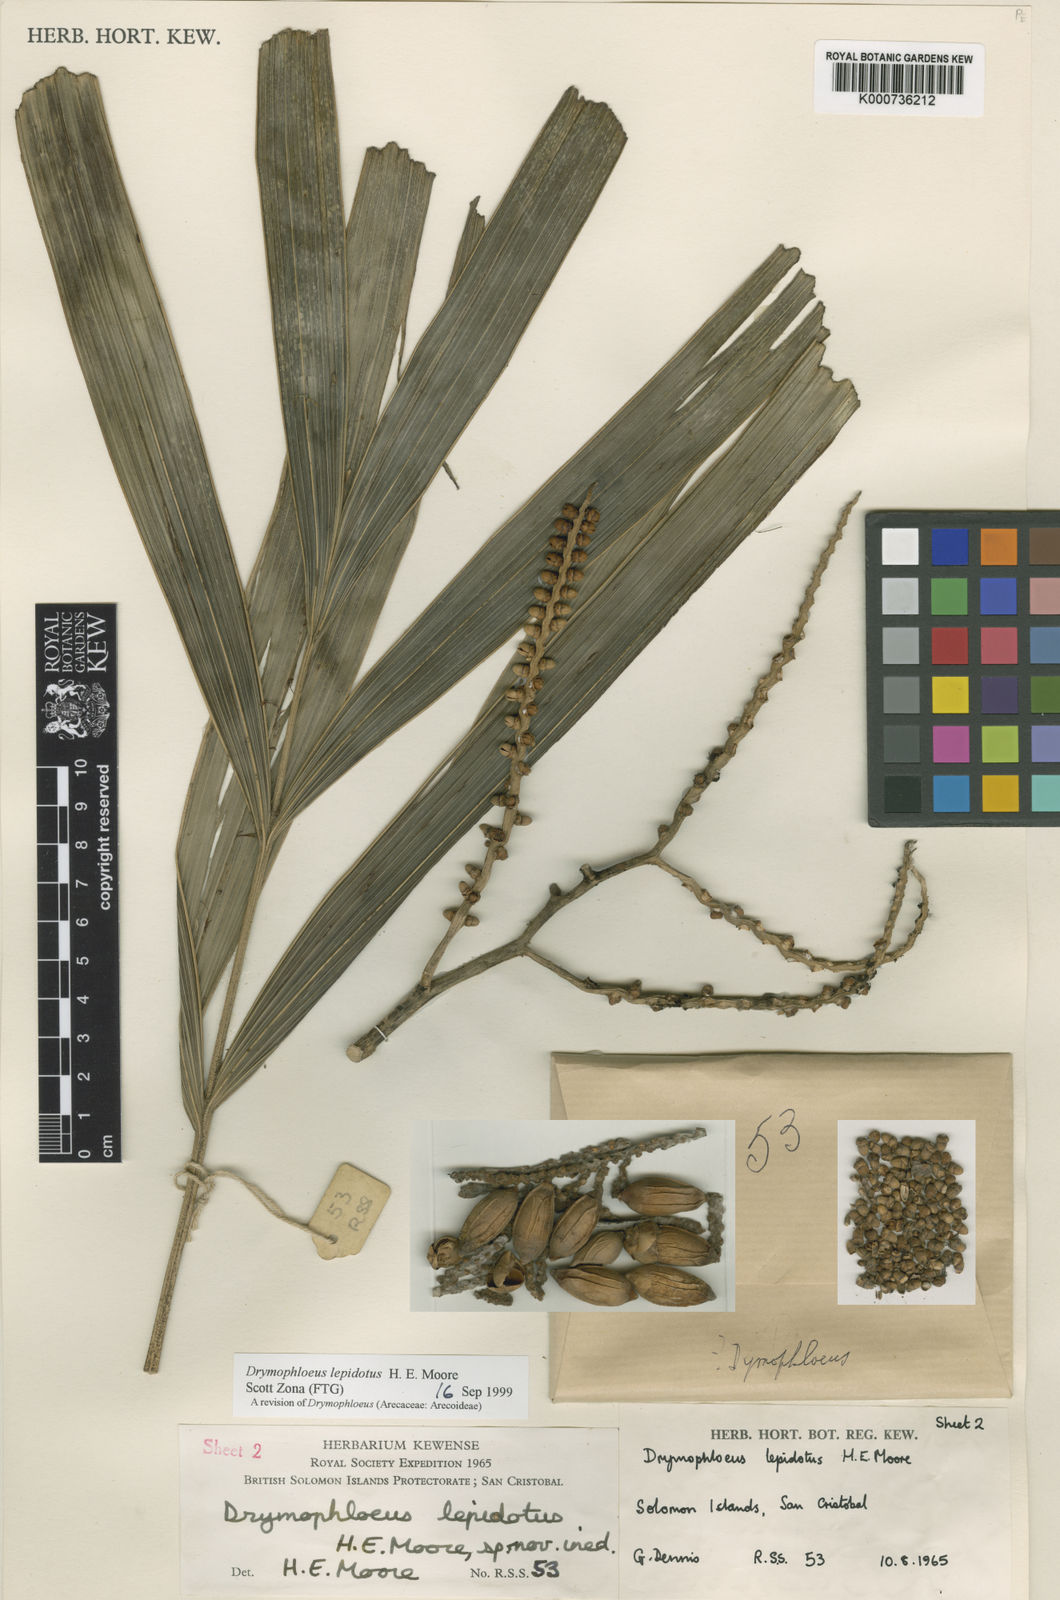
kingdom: Plantae
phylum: Tracheophyta
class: Liliopsida
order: Arecales
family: Arecaceae
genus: Veitchia
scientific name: Veitchia lepidota
